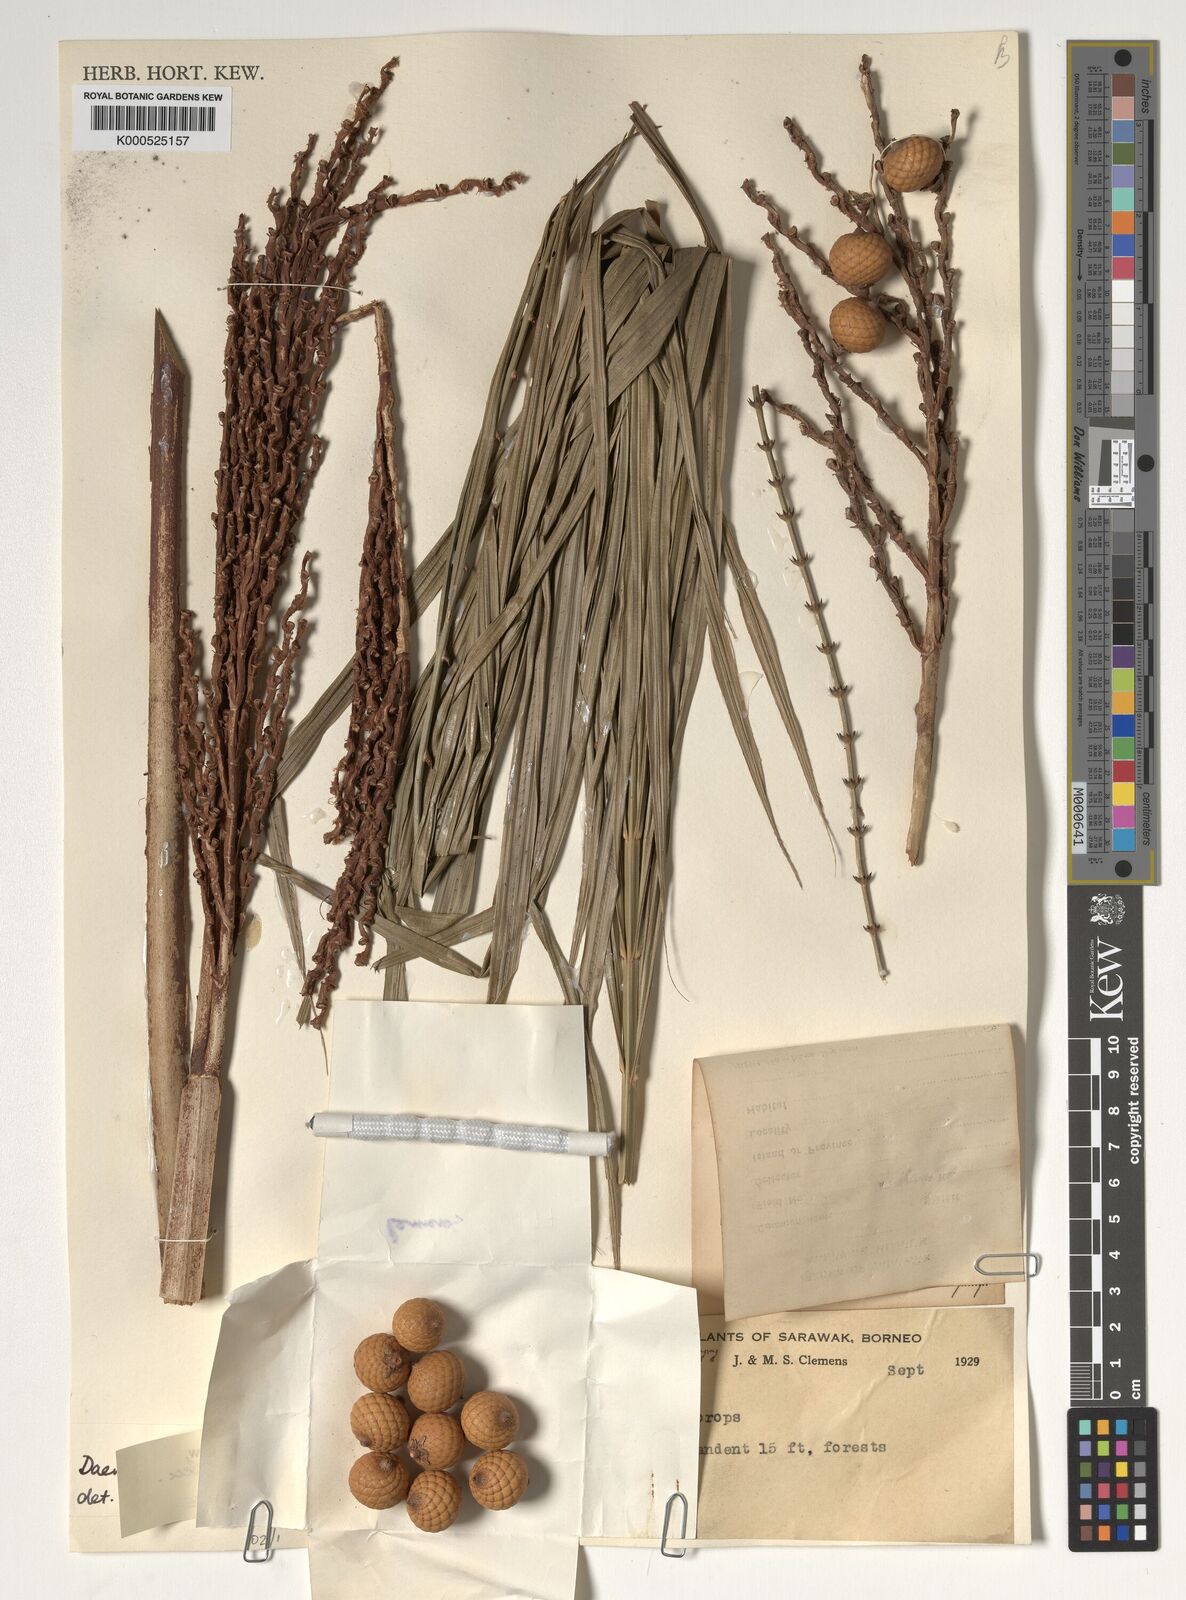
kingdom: Plantae
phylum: Tracheophyta
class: Liliopsida
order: Arecales
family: Arecaceae
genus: Calamus
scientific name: Calamus cristatus
